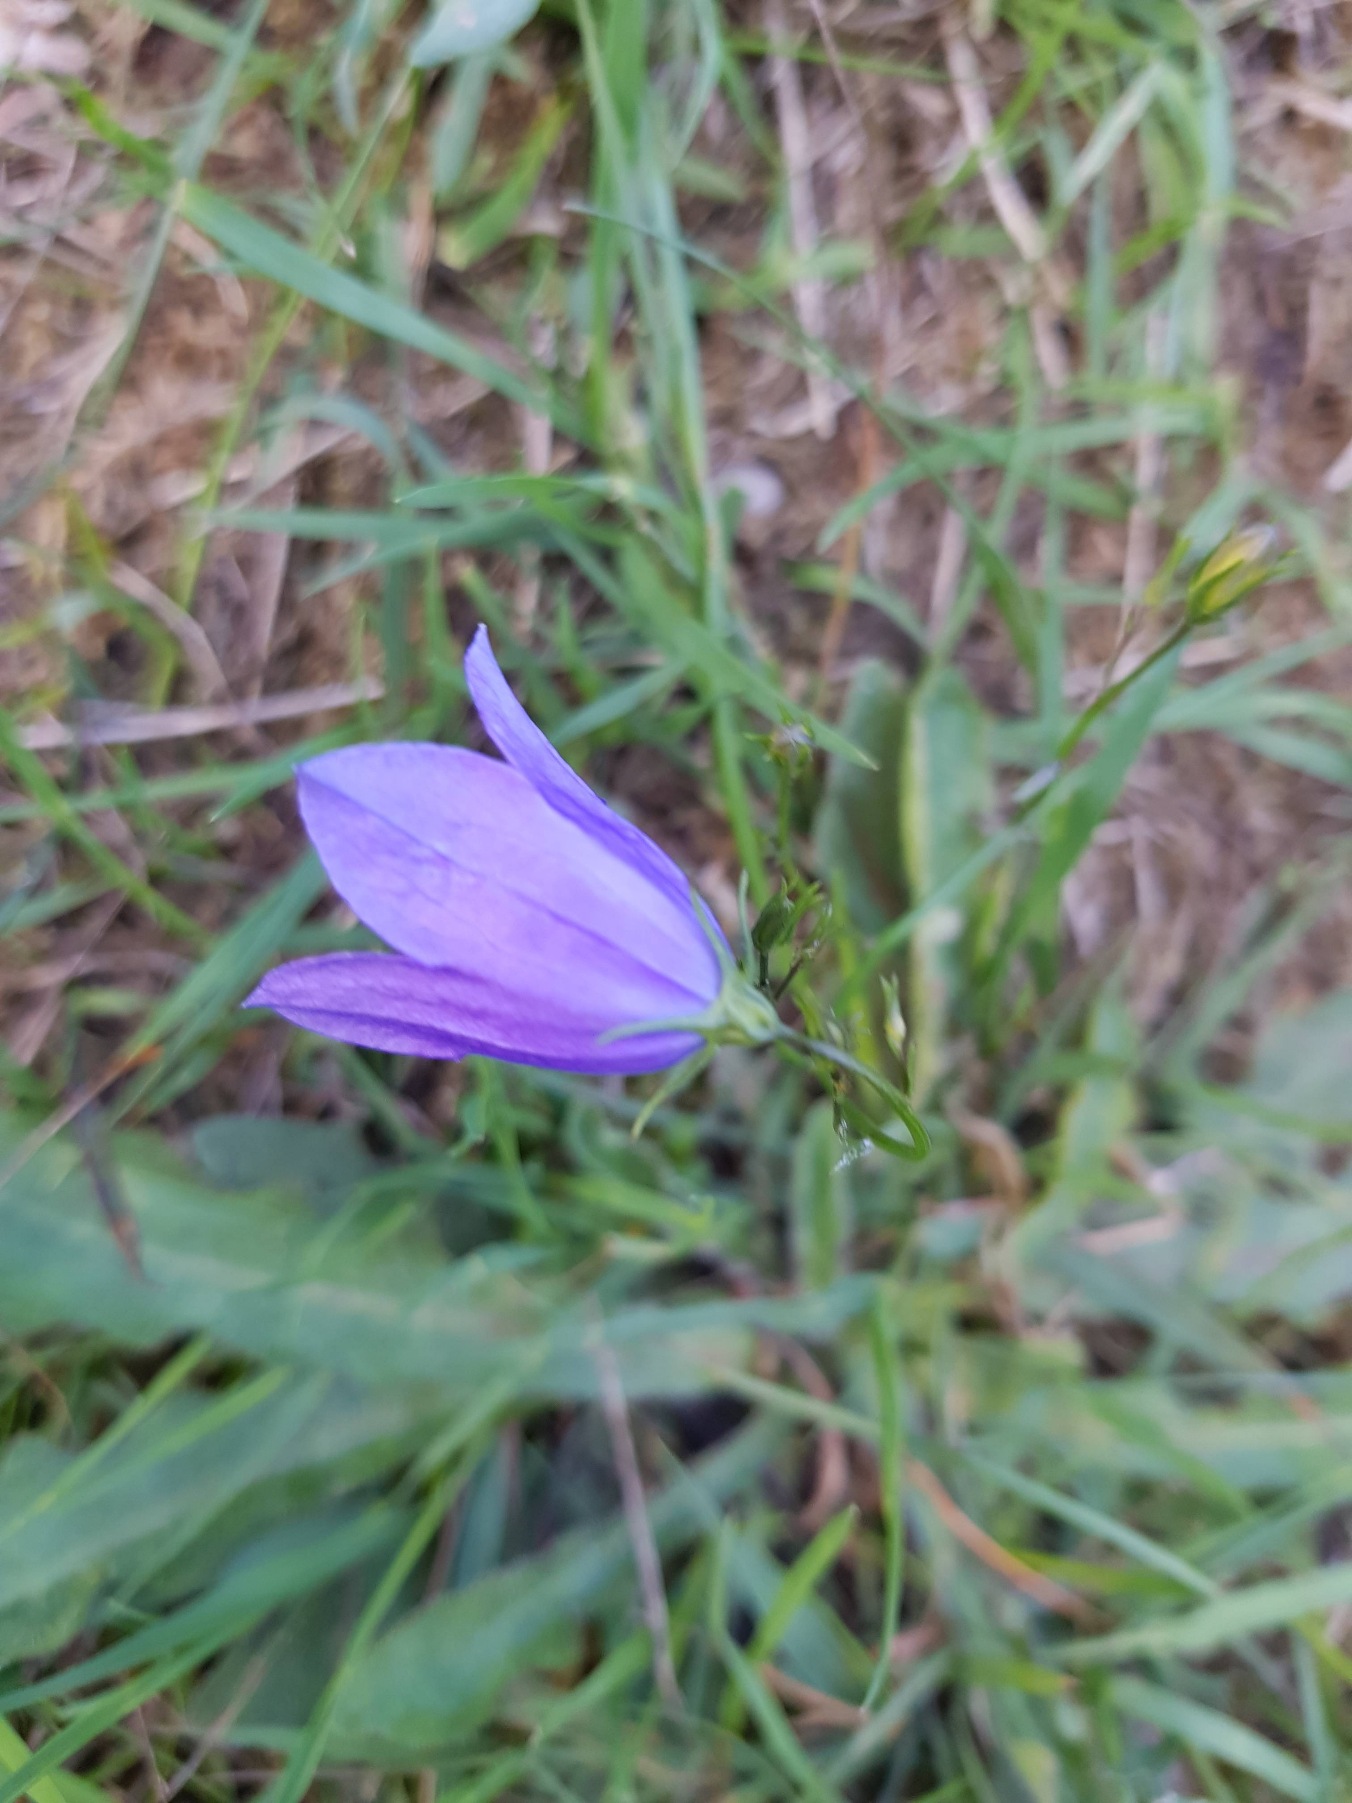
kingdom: Plantae
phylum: Tracheophyta
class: Magnoliopsida
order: Asterales
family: Campanulaceae
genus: Campanula
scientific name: Campanula rotundifolia
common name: Liden klokke
